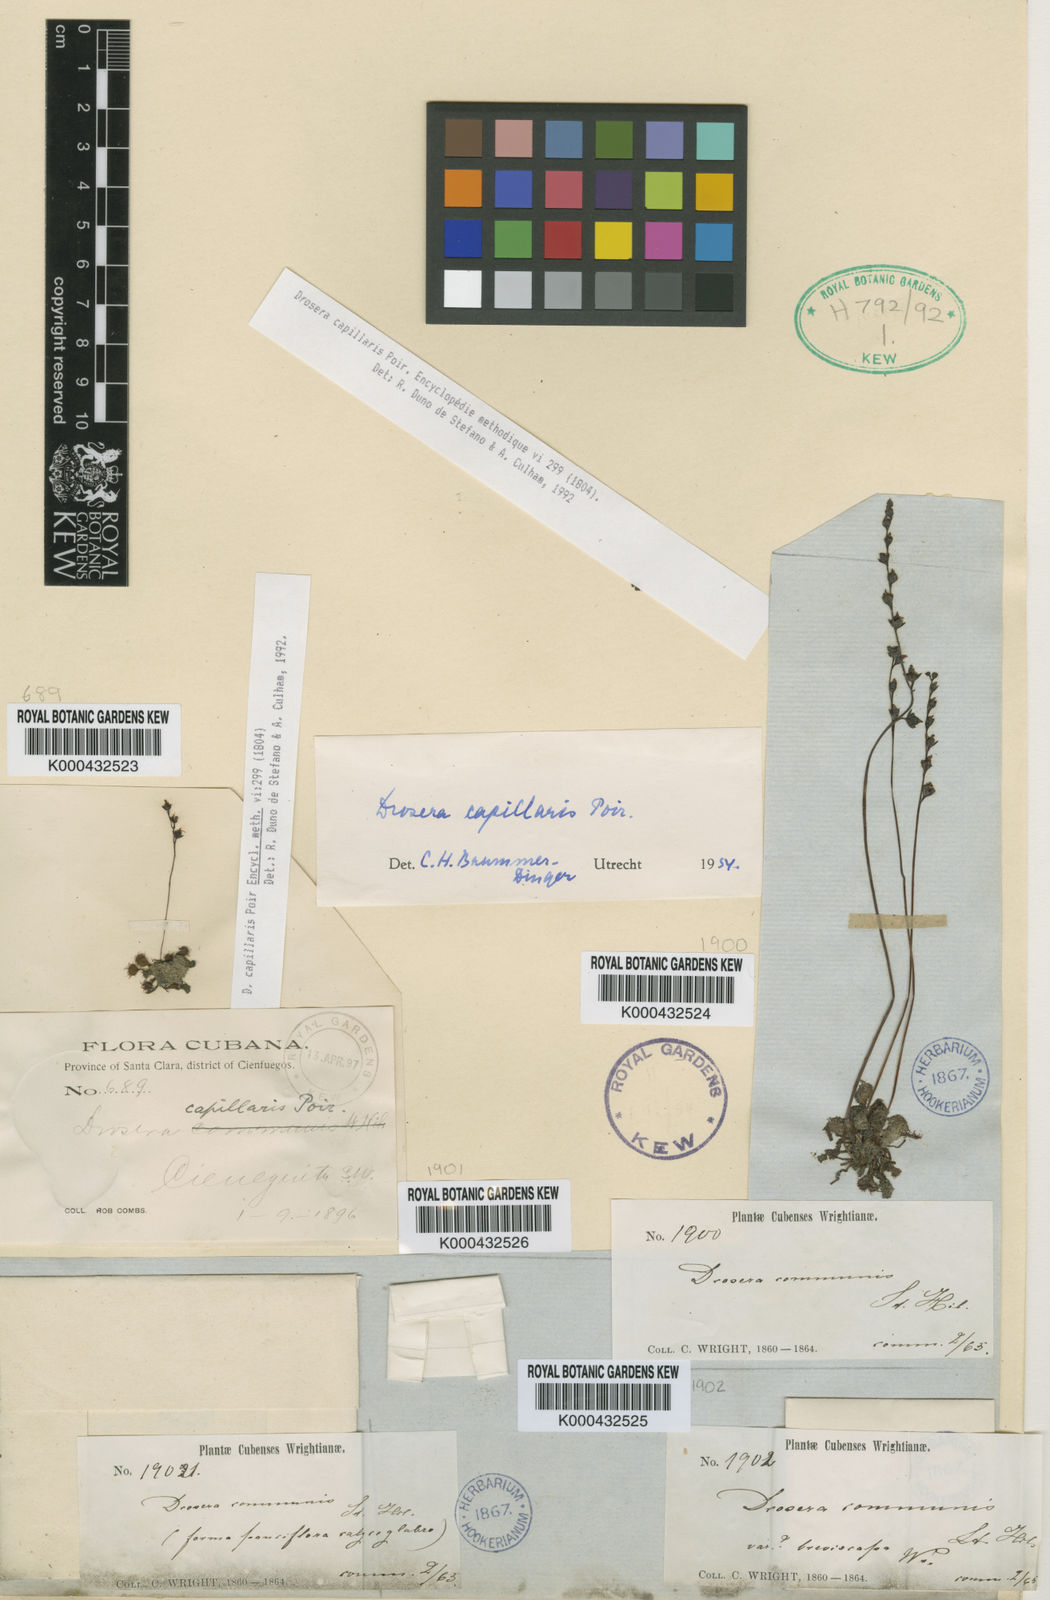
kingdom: Plantae
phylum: Tracheophyta
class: Magnoliopsida
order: Caryophyllales
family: Droseraceae
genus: Drosera
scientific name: Drosera capillaris
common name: Pink sundew
